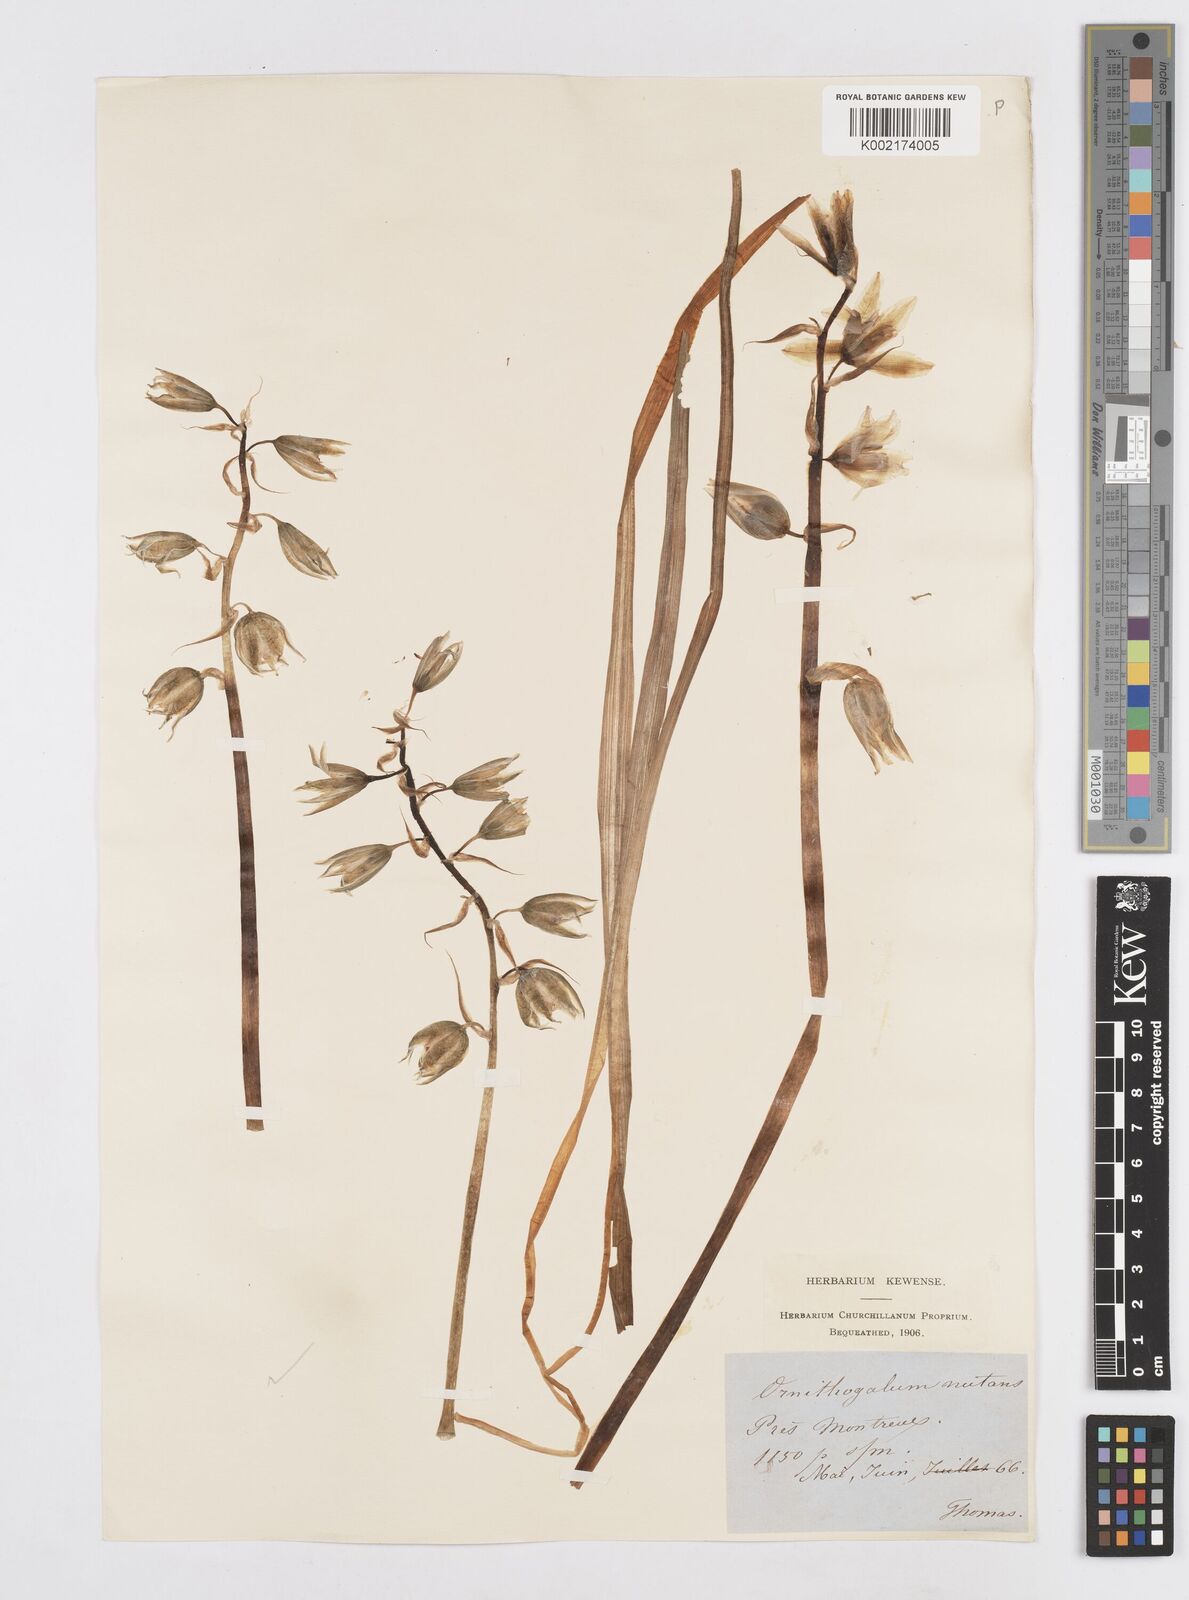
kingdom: Plantae
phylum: Tracheophyta
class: Liliopsida
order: Asparagales
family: Asparagaceae
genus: Ornithogalum
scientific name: Ornithogalum nutans
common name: Drooping star-of-bethlehem
